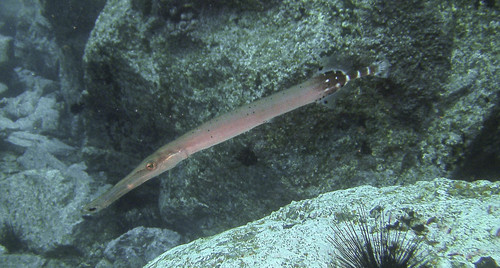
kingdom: Animalia
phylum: Chordata
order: Syngnathiformes
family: Aulostomidae
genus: Aulostomus
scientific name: Aulostomus strigosus
